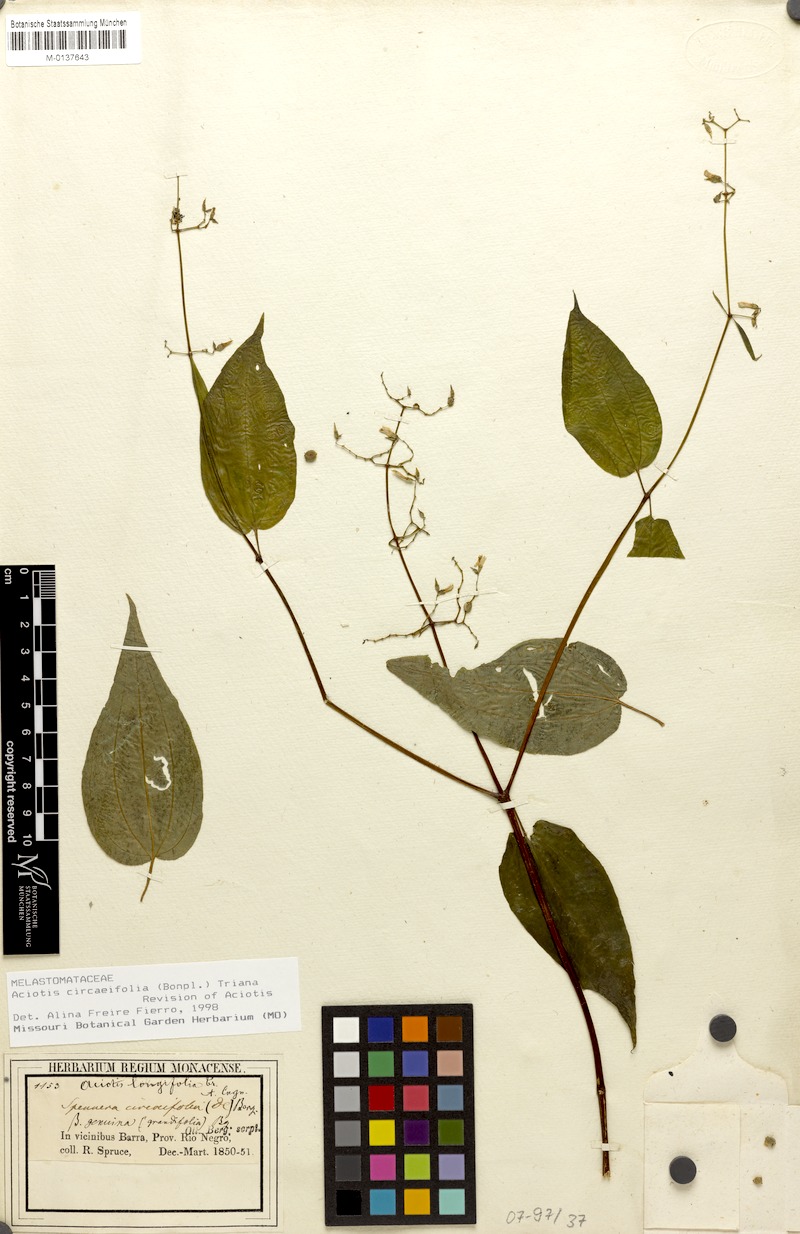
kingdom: Plantae
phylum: Tracheophyta
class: Magnoliopsida
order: Myrtales
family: Melastomataceae
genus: Aciotis
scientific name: Aciotis circaeifolia
